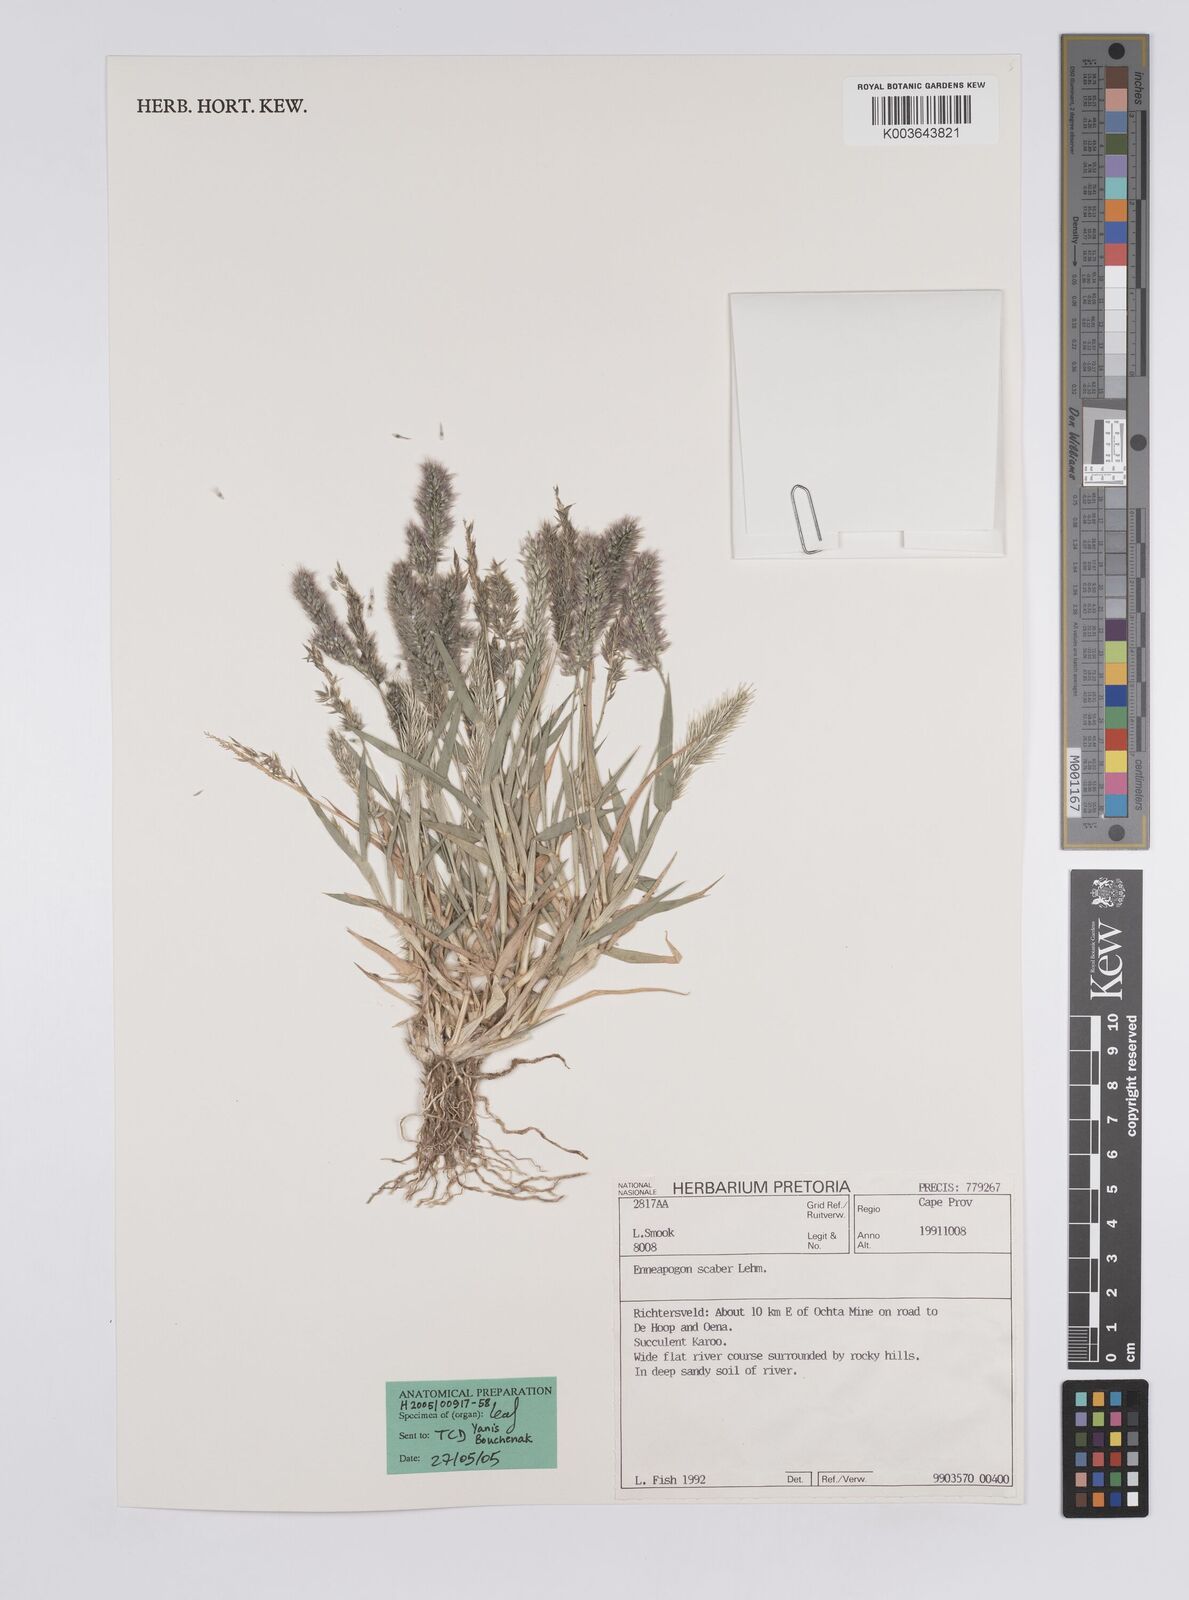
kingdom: Plantae
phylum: Tracheophyta
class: Liliopsida
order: Poales
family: Poaceae
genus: Enneapogon
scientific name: Enneapogon scaber
